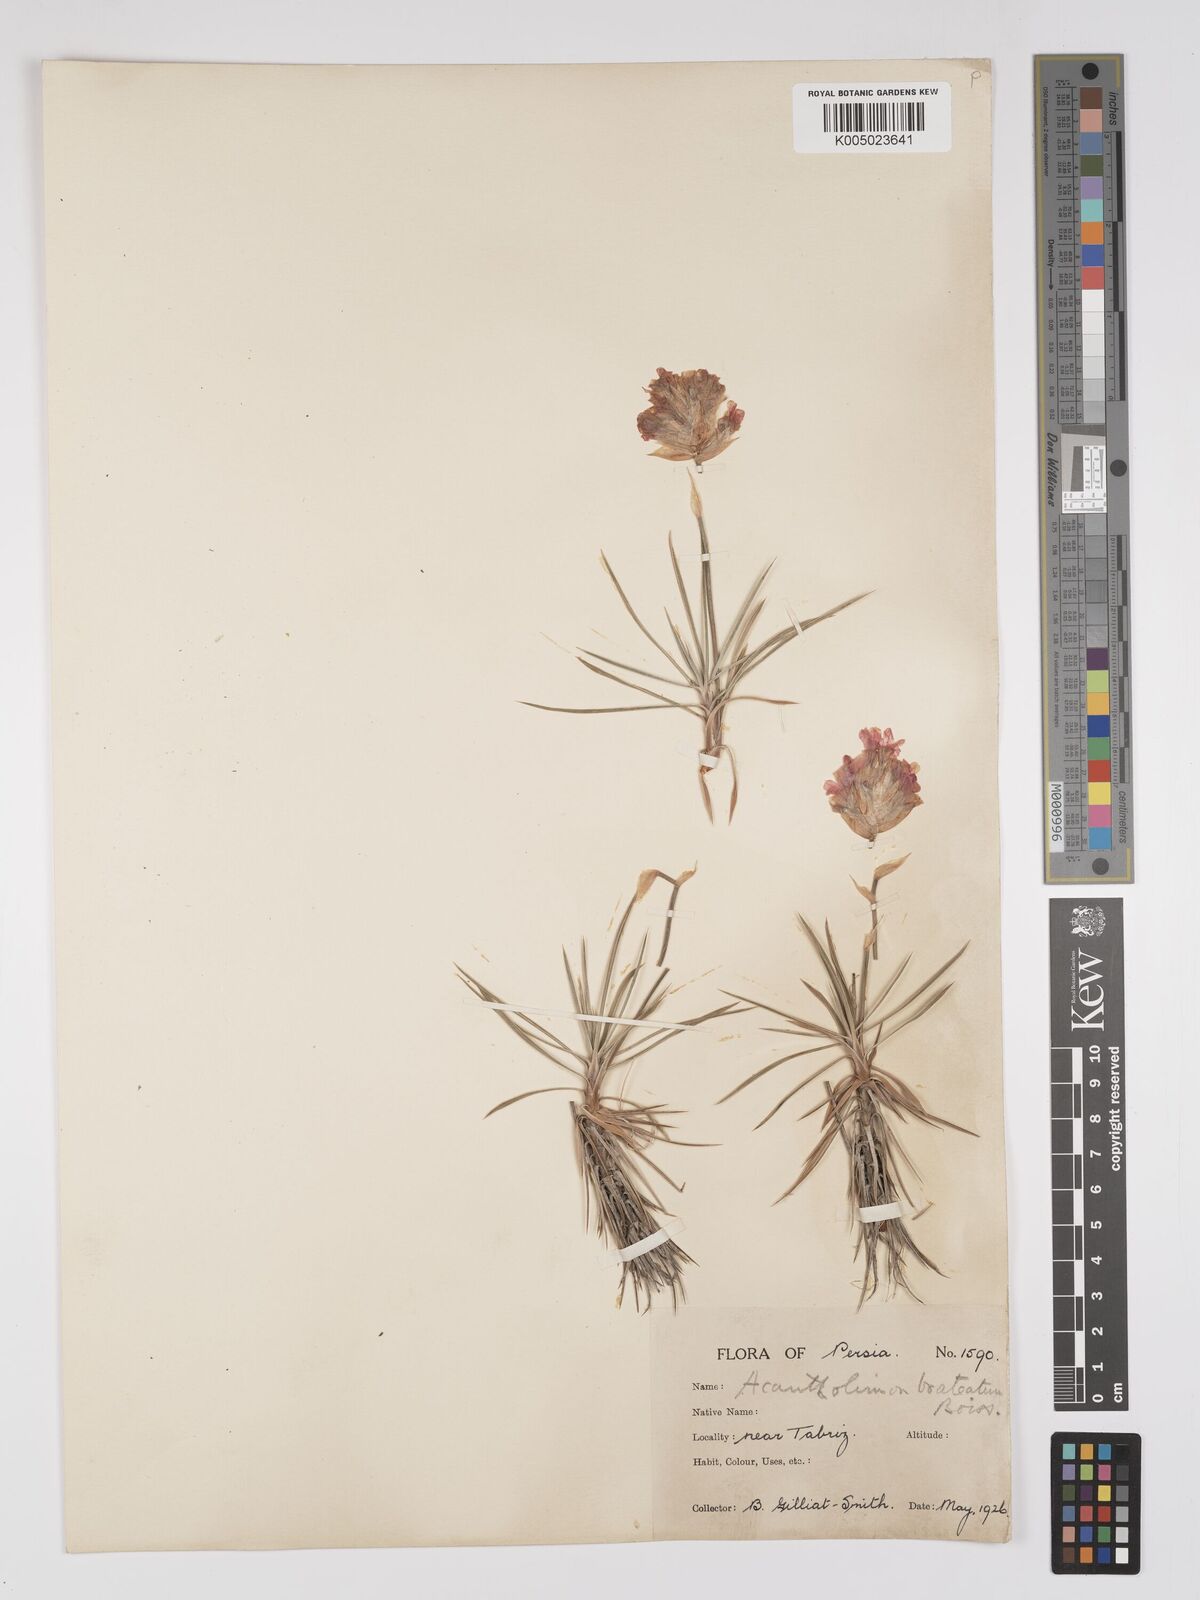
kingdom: Plantae
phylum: Tracheophyta
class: Magnoliopsida
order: Caryophyllales
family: Plumbaginaceae
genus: Acantholimon
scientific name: Acantholimon bracteatum
